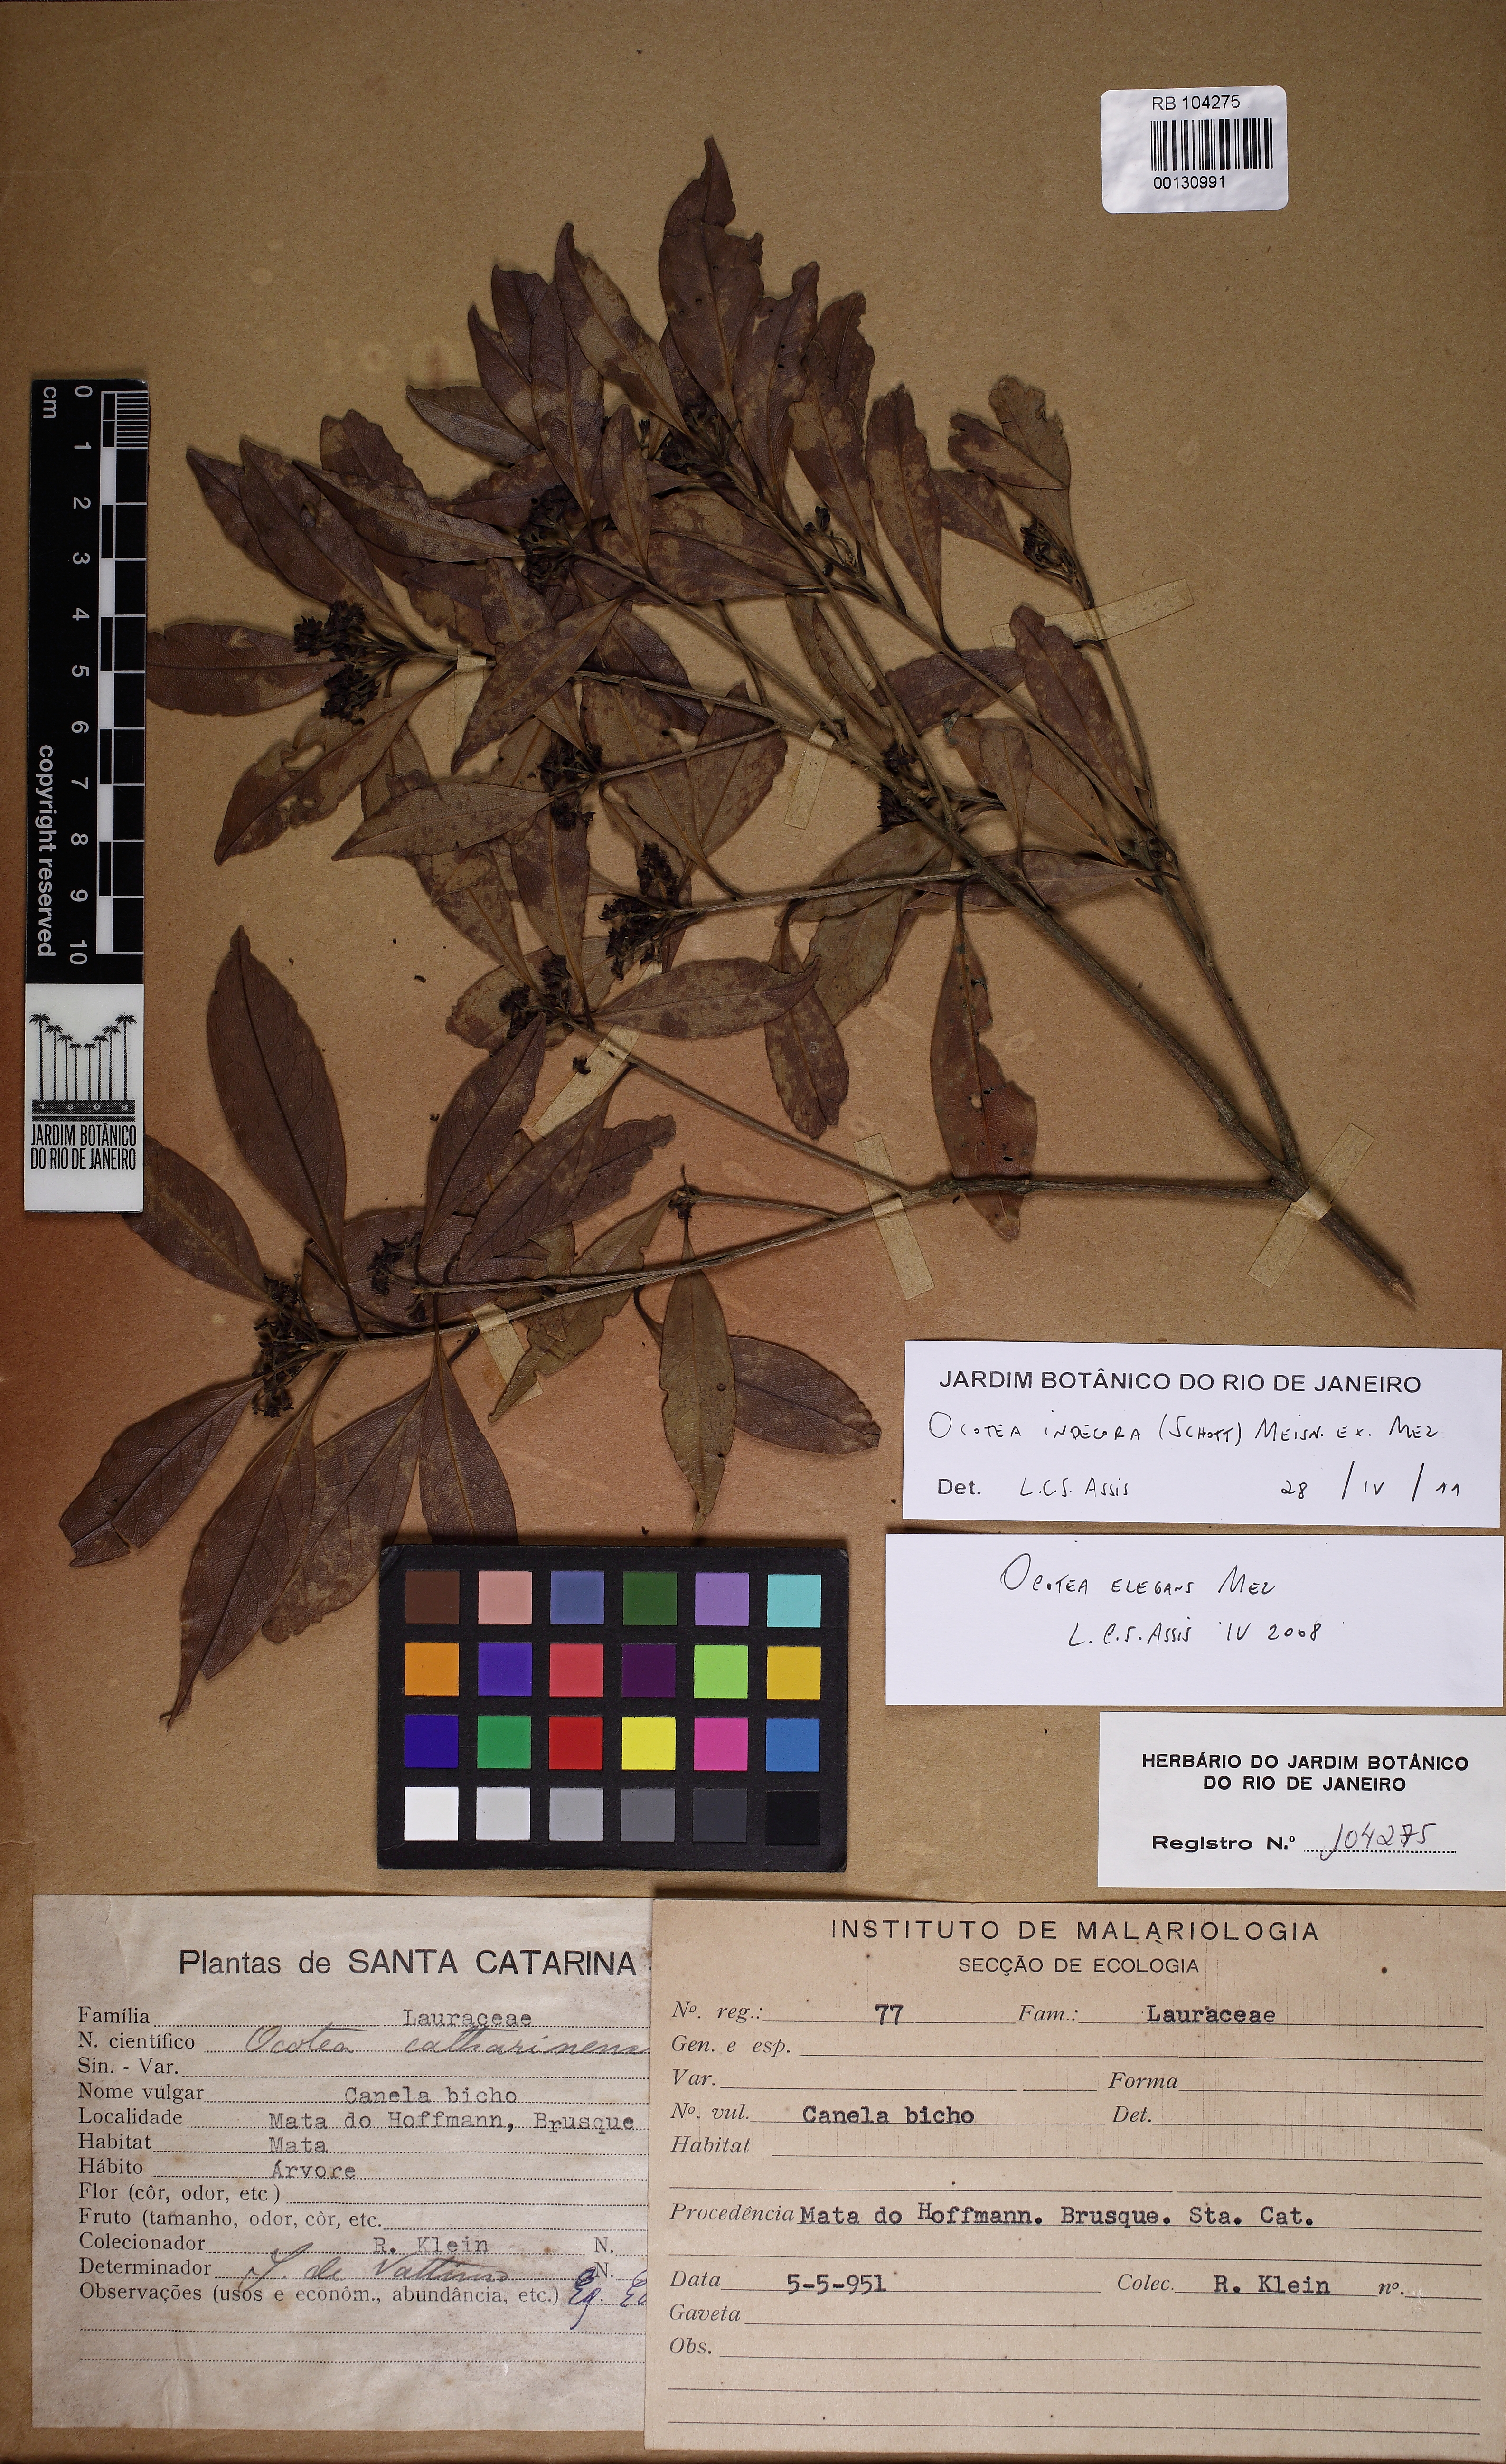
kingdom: Plantae
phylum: Tracheophyta
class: Magnoliopsida
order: Laurales
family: Lauraceae
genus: Ocotea
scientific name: Ocotea elegans
